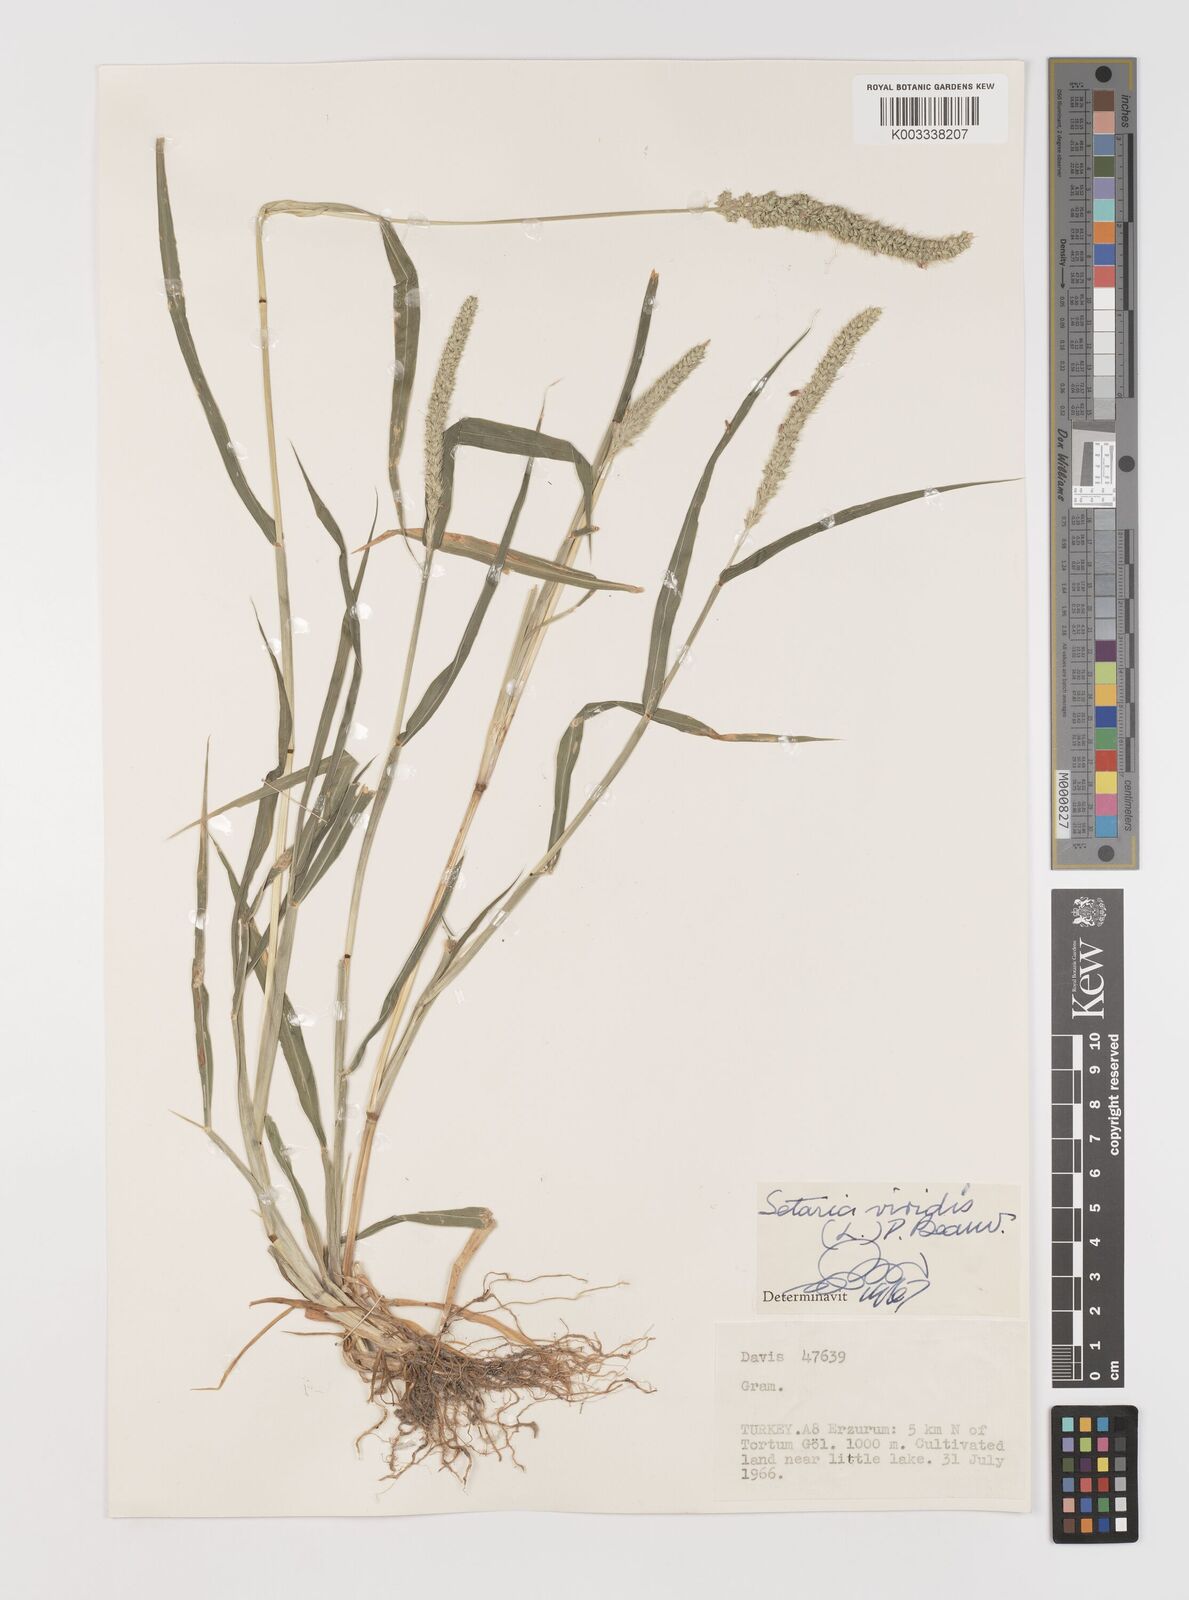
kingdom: Plantae
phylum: Tracheophyta
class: Liliopsida
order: Poales
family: Poaceae
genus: Setaria
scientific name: Setaria verticillata
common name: Hooked bristlegrass
